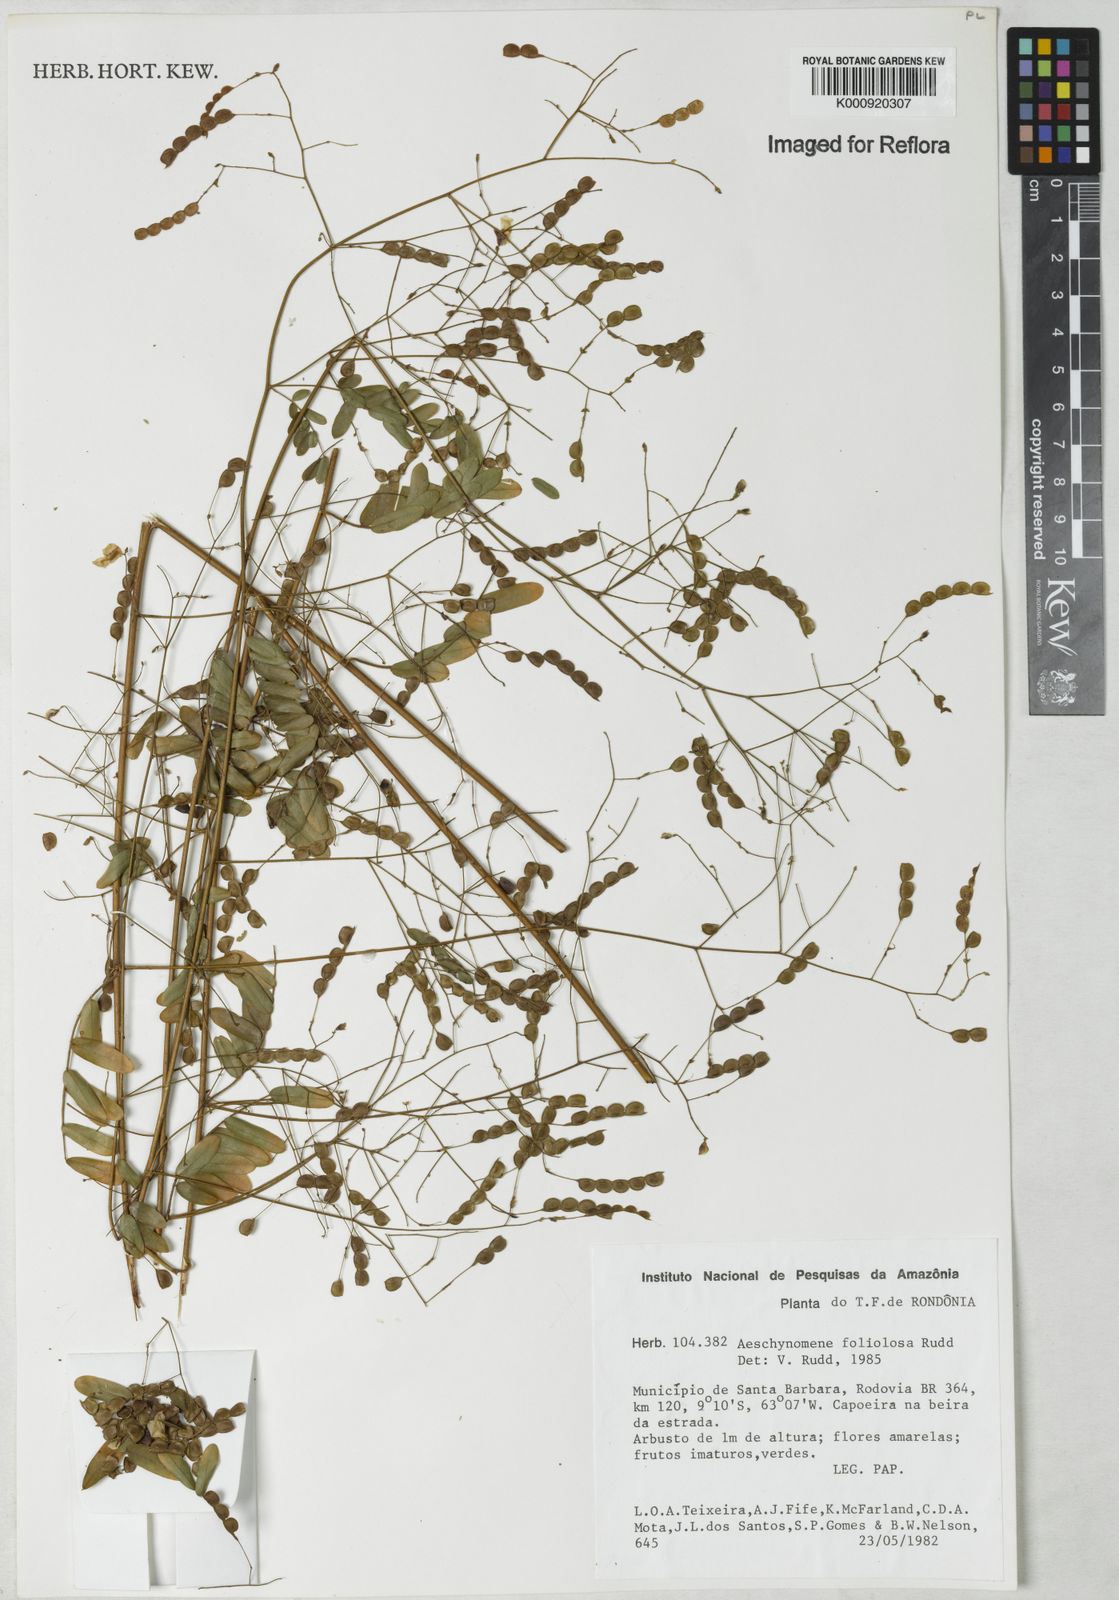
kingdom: Plantae
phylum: Tracheophyta
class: Magnoliopsida
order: Fabales
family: Fabaceae
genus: Ctenodon
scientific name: Ctenodon foliolosus
